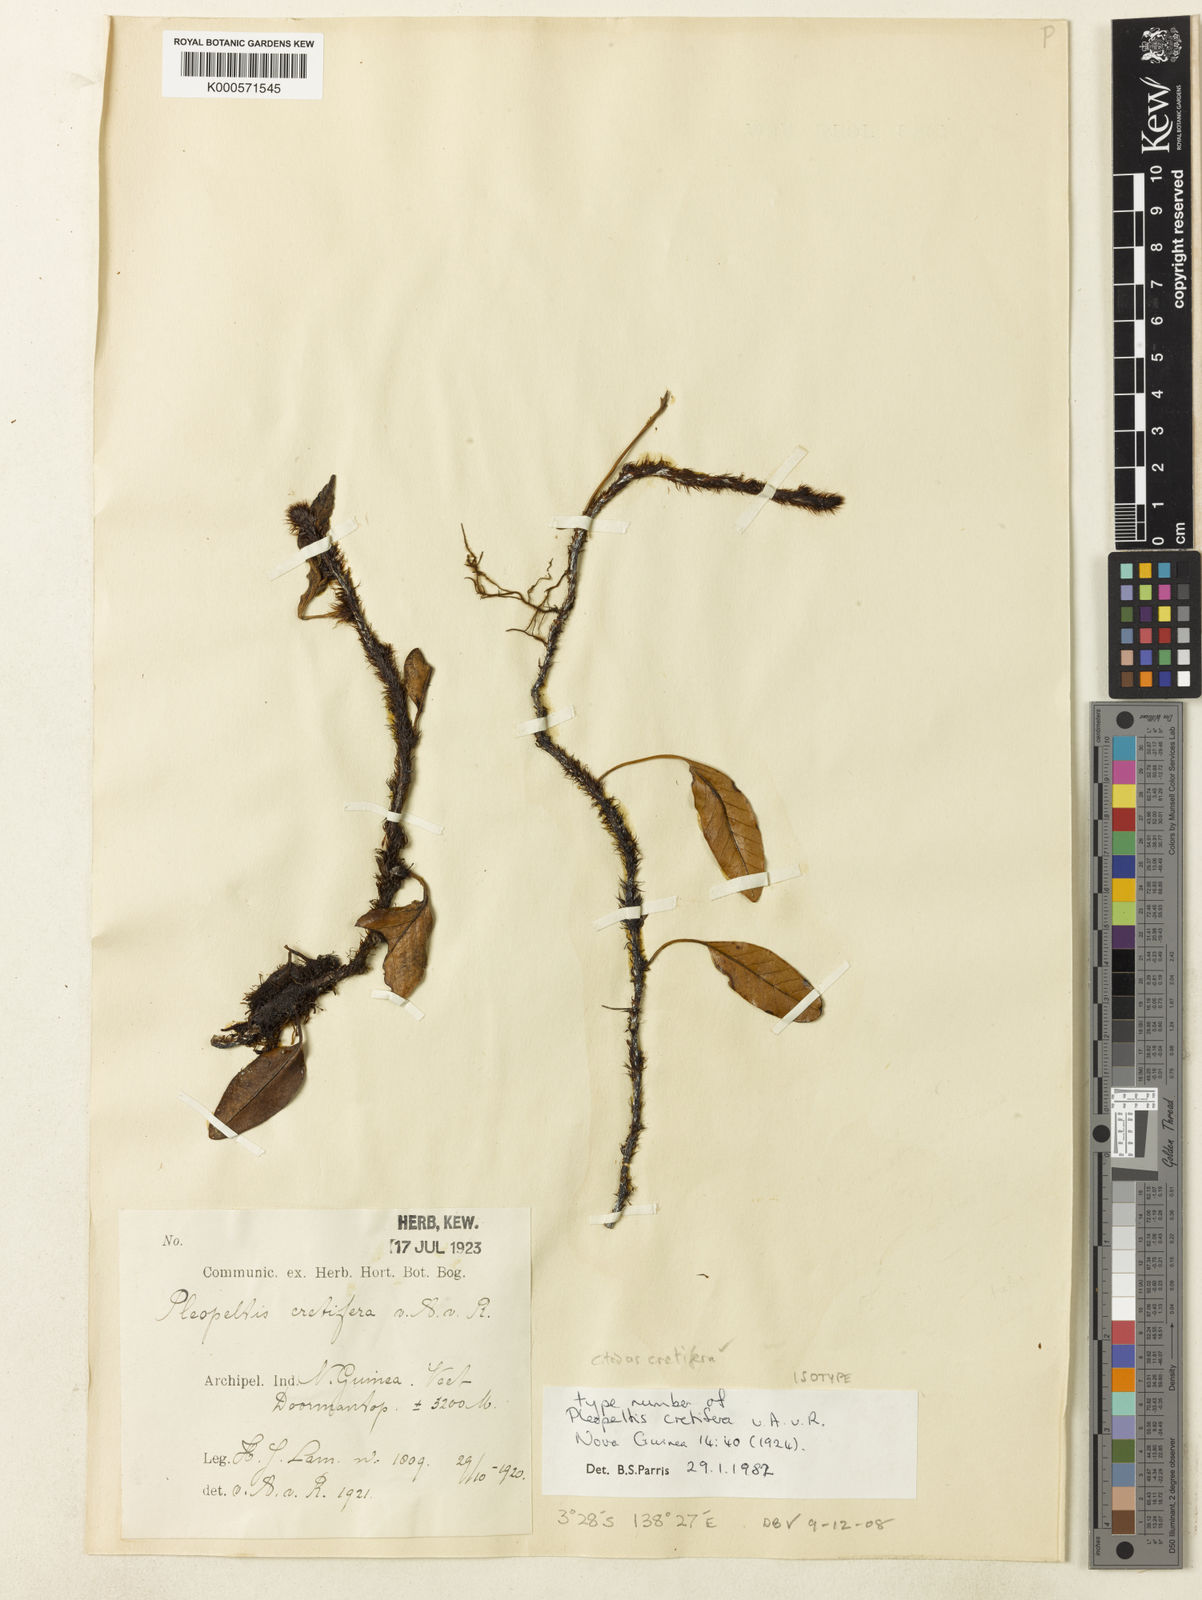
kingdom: Plantae
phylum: Tracheophyta
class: Polypodiopsida
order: Polypodiales
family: Polypodiaceae
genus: Selliguea
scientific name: Selliguea cretifera
